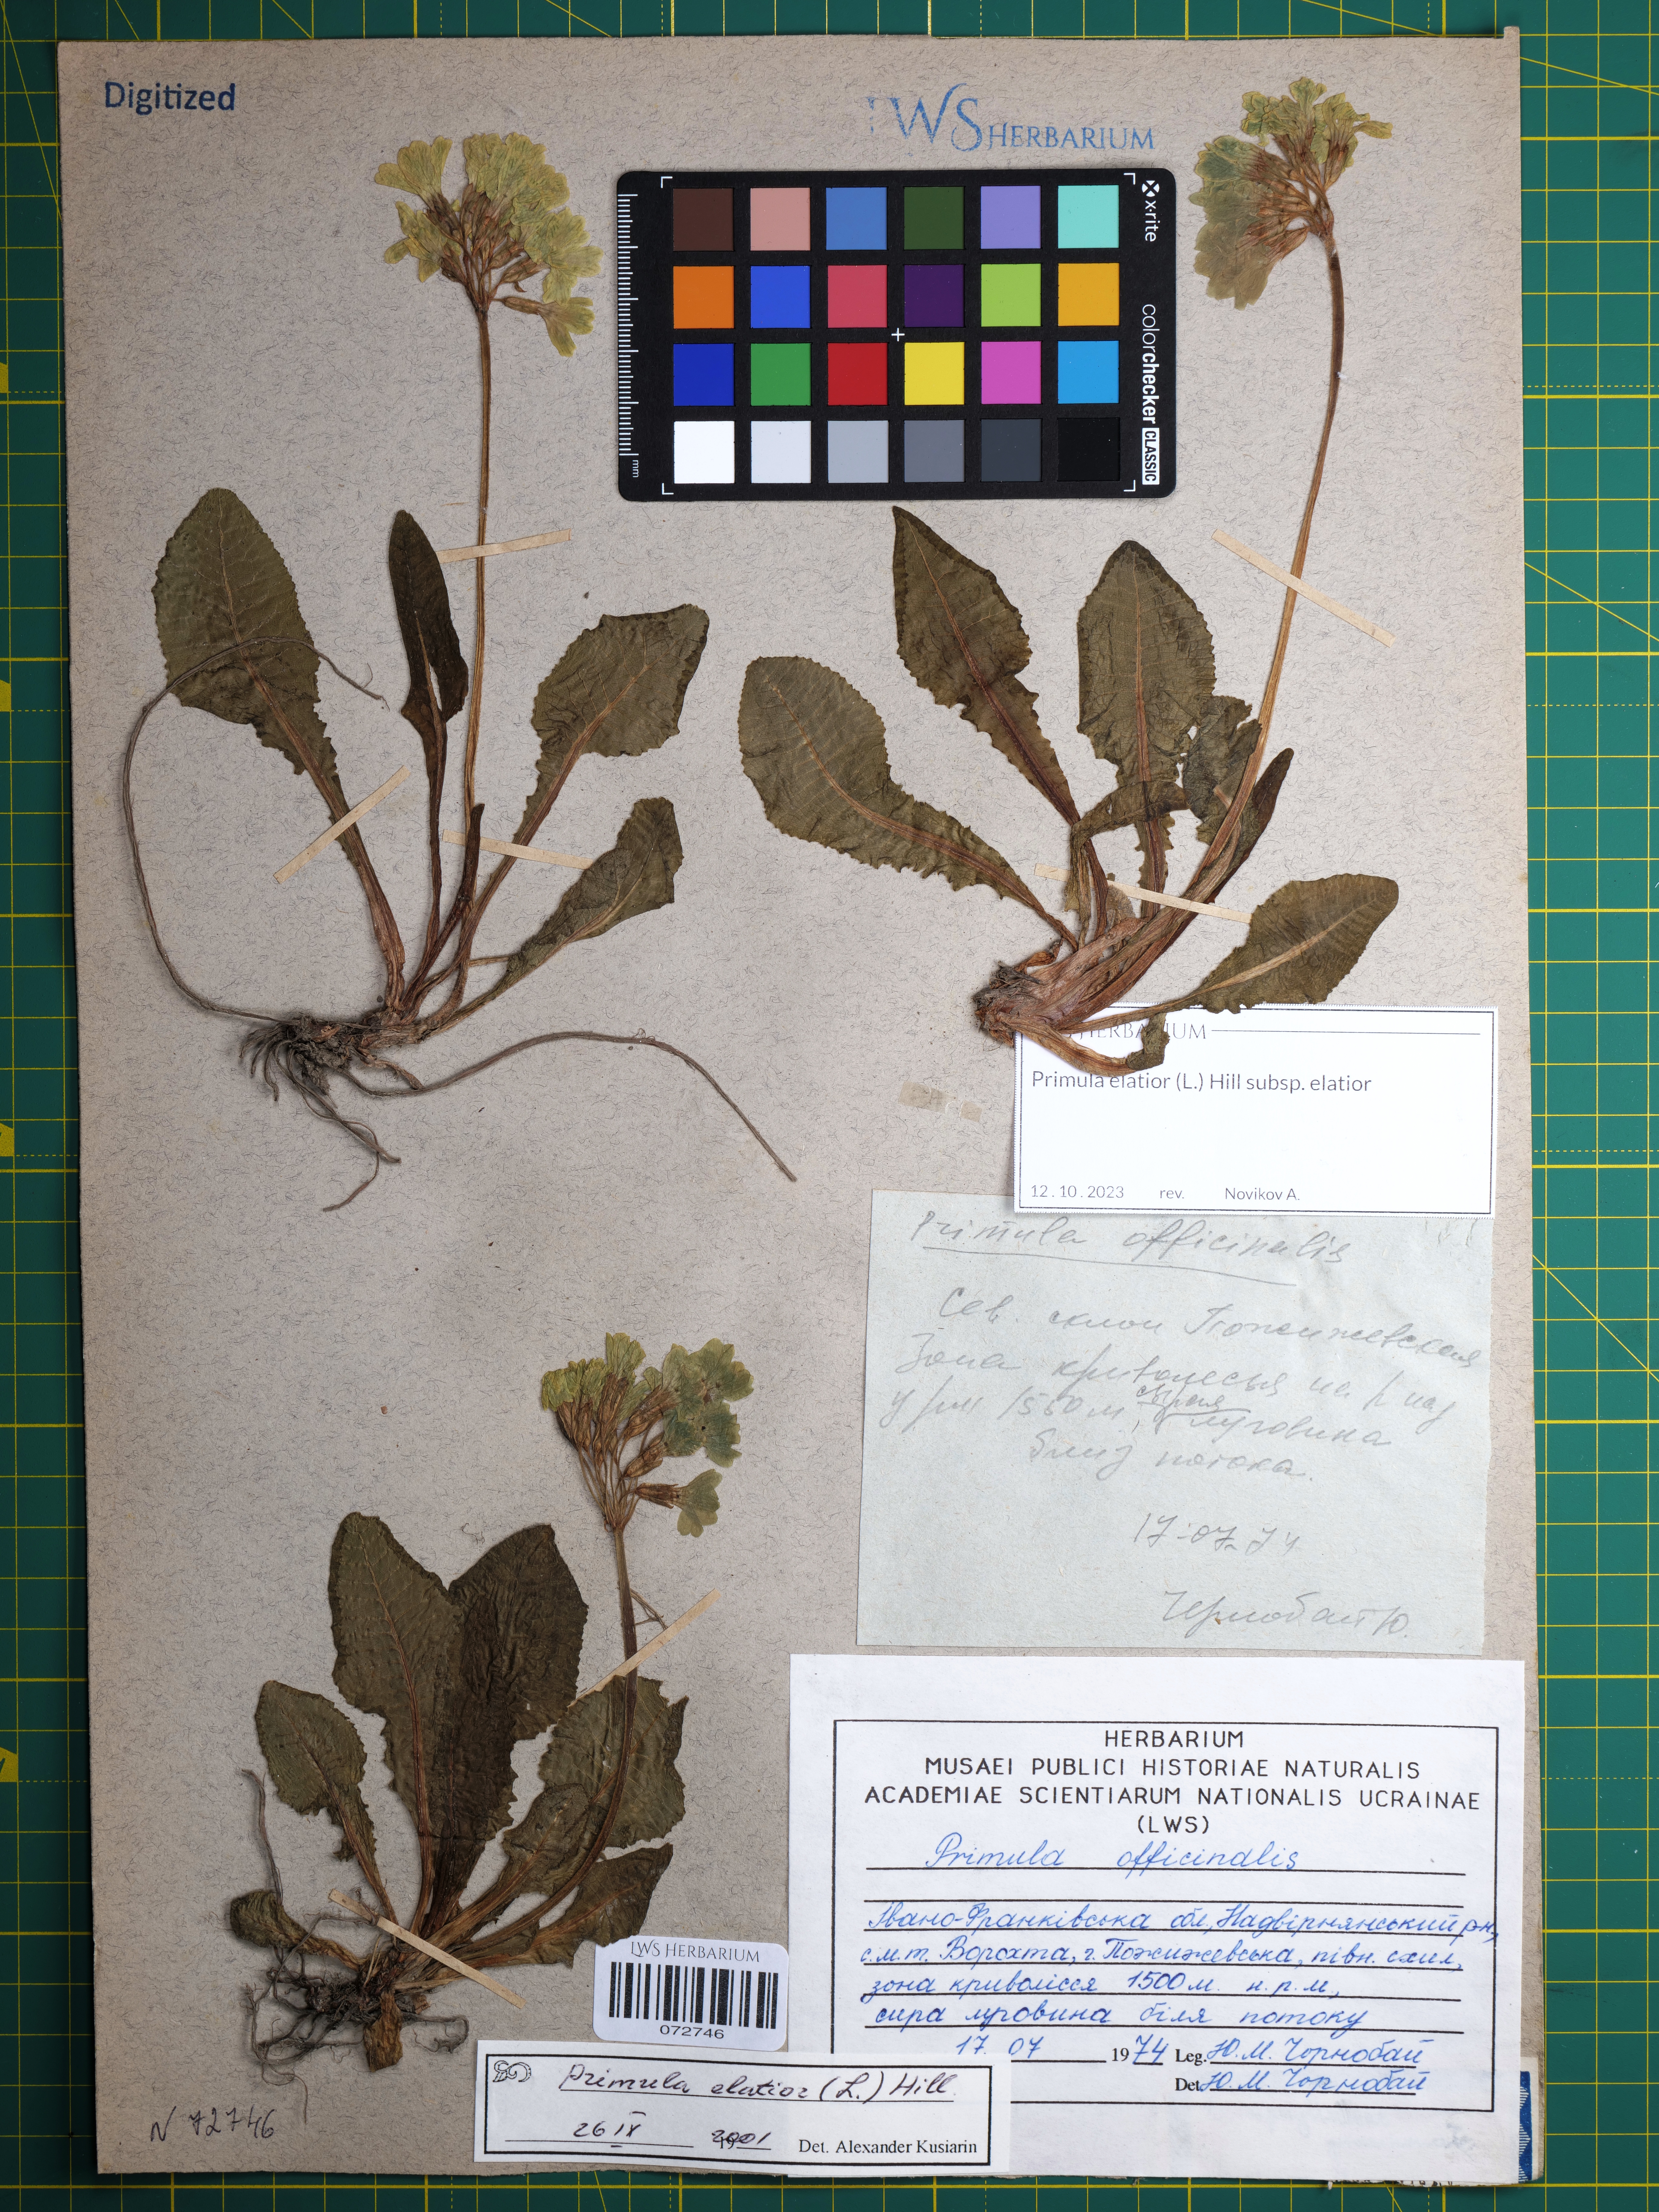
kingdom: Plantae
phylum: Tracheophyta
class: Magnoliopsida
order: Ericales
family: Primulaceae
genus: Primula
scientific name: Primula elatior
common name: Oxlip
